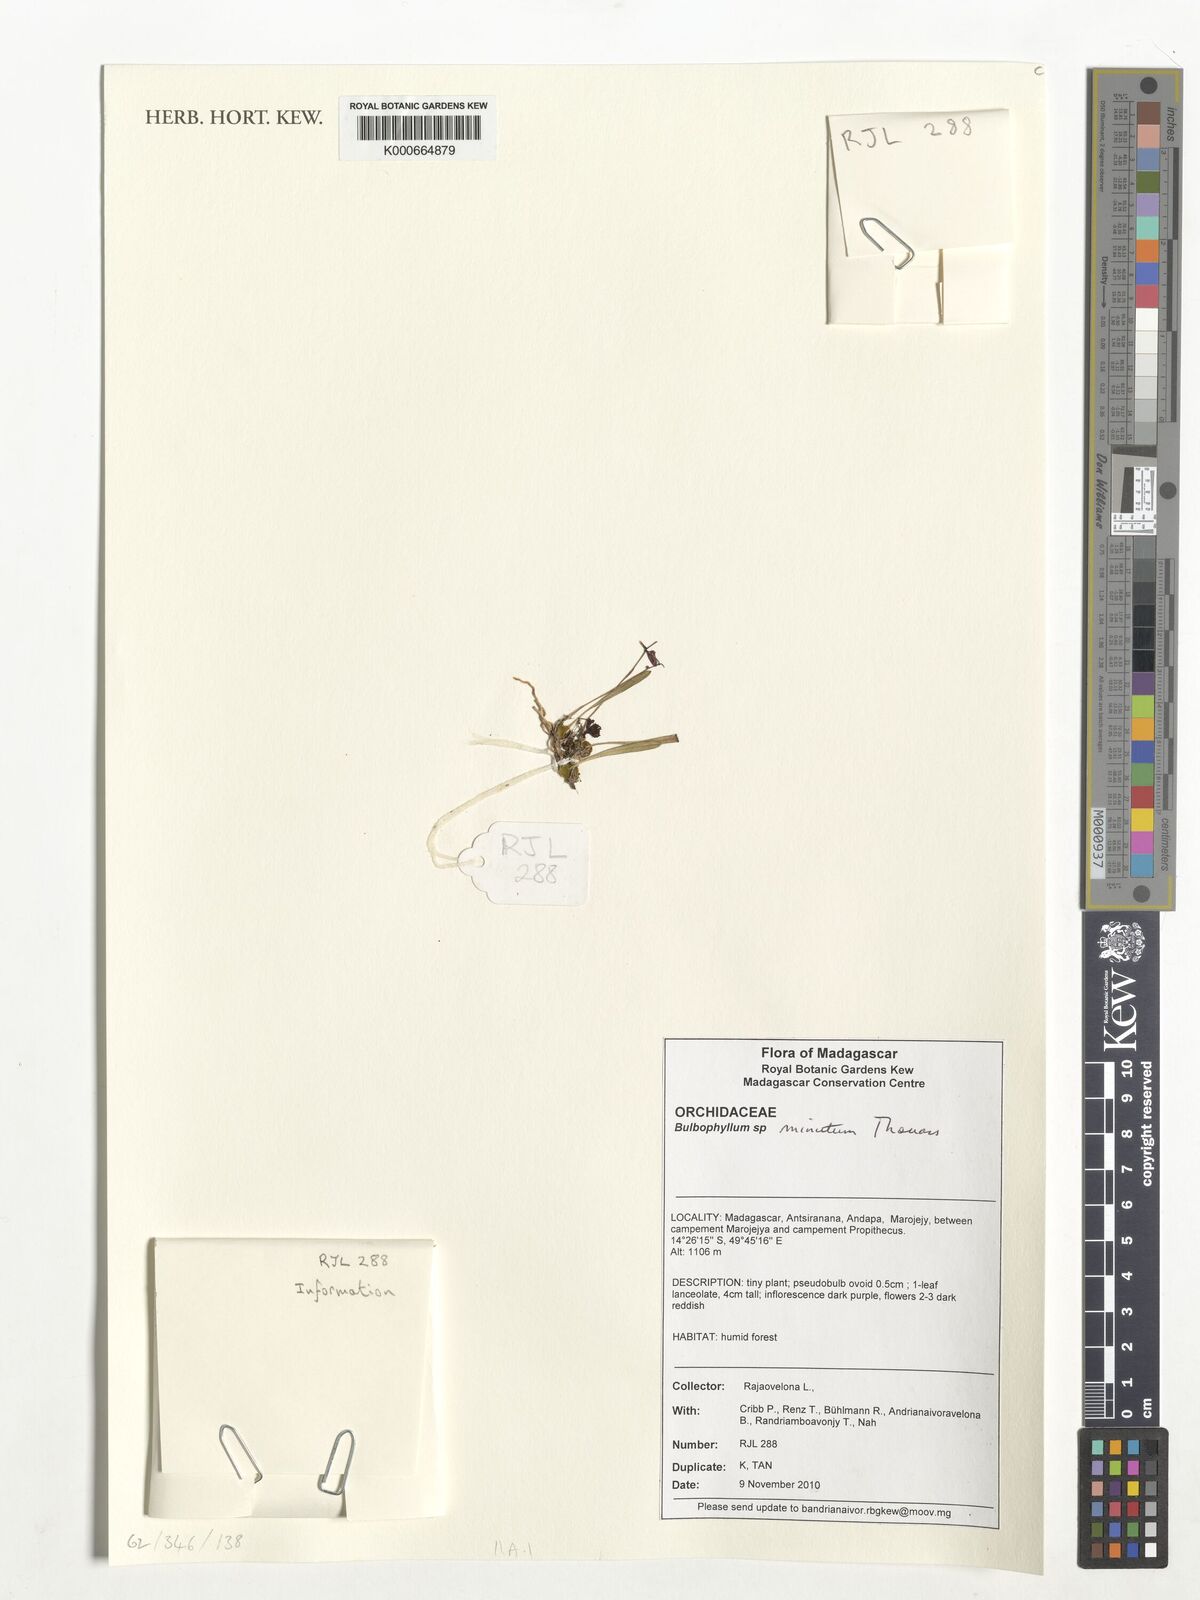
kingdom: Plantae
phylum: Tracheophyta
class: Liliopsida
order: Asparagales
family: Orchidaceae
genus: Bulbophyllum
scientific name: Bulbophyllum minutum
